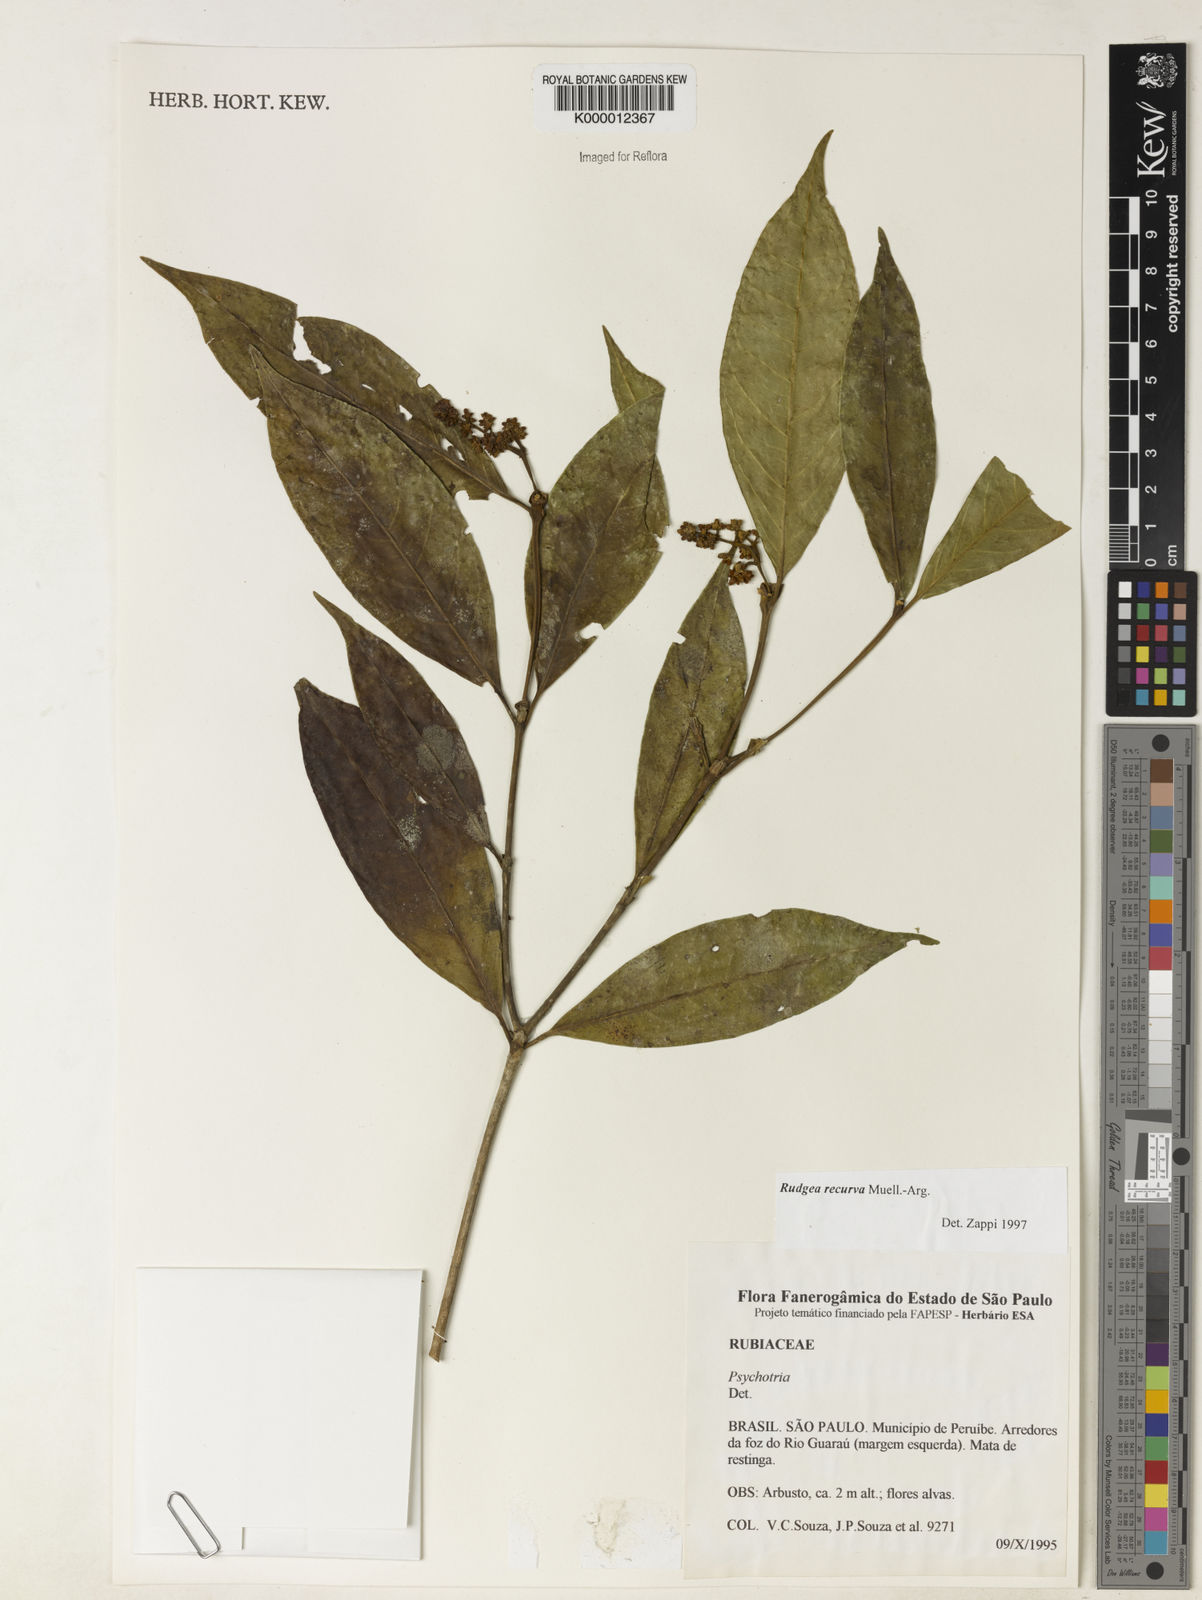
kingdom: Plantae
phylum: Tracheophyta
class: Magnoliopsida
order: Gentianales
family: Rubiaceae
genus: Rudgea
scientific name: Rudgea recurva
